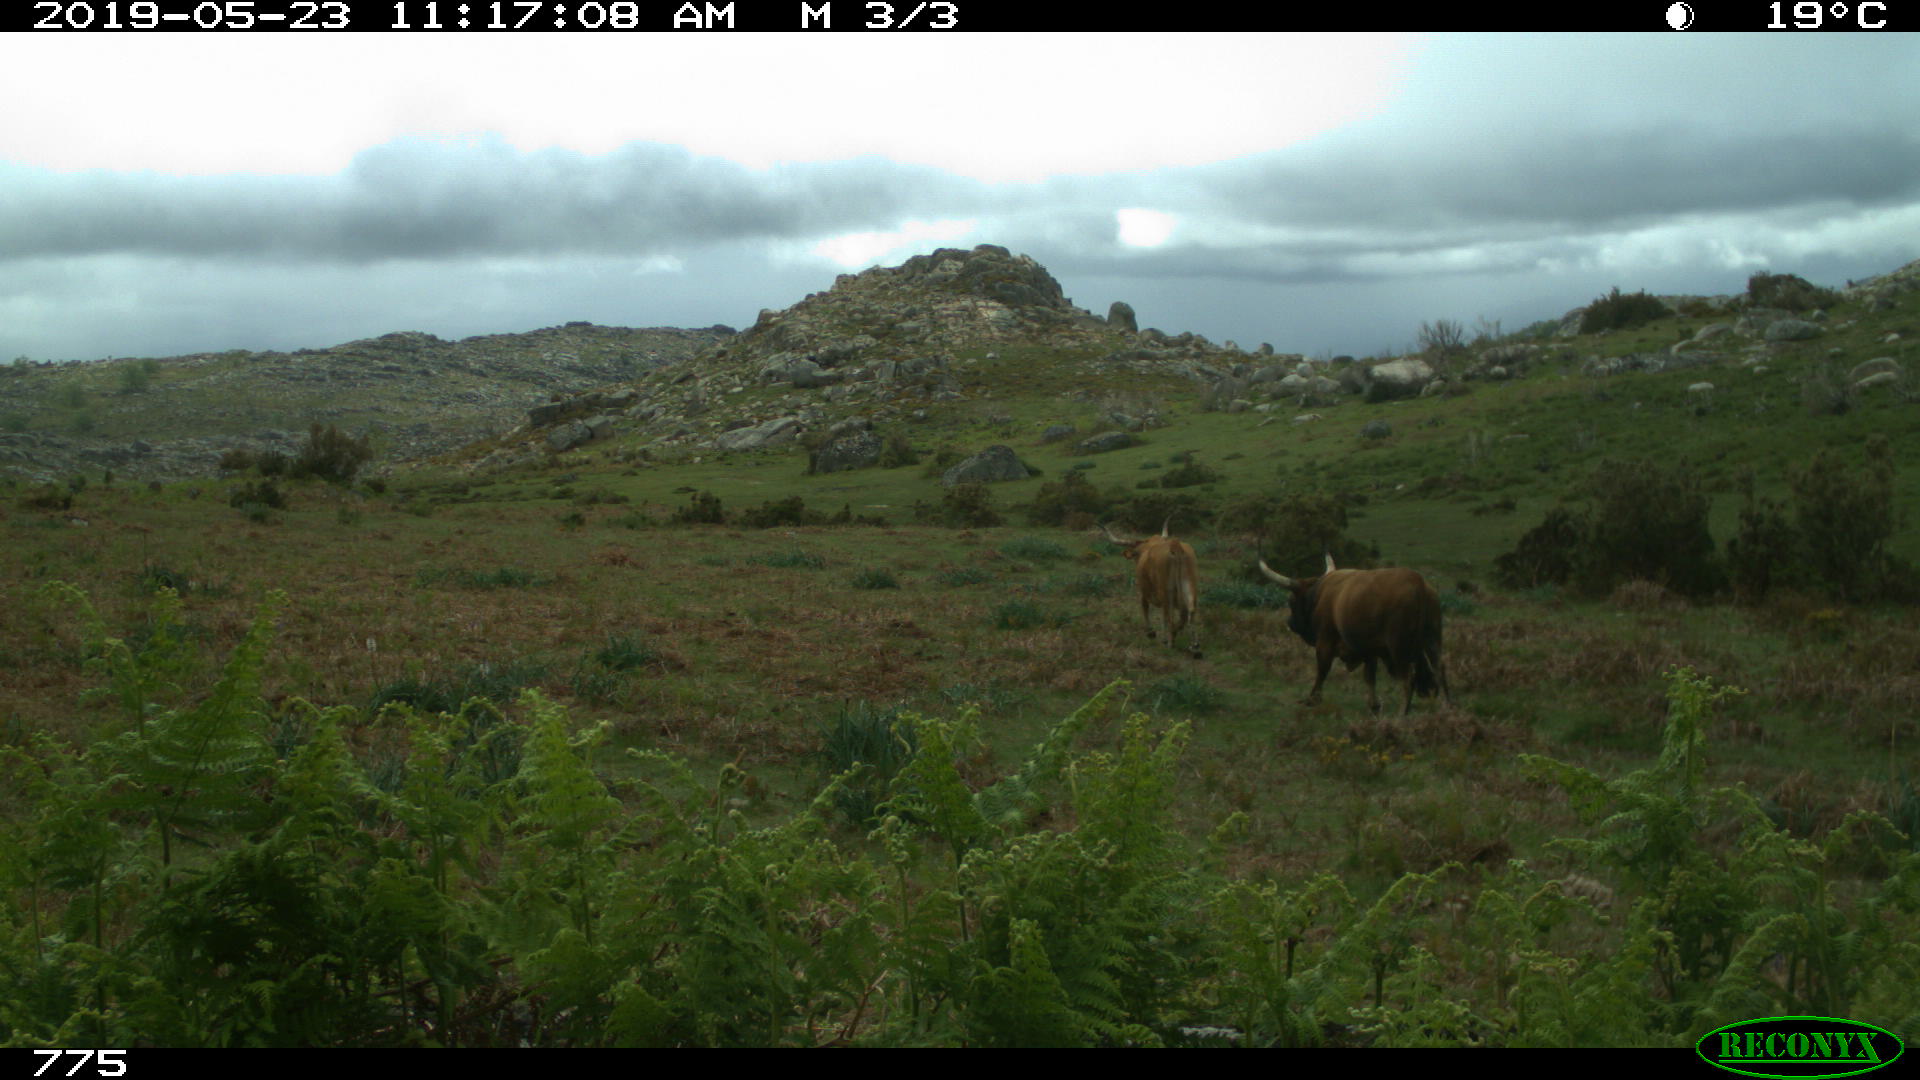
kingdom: Animalia
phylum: Chordata
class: Mammalia
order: Artiodactyla
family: Bovidae
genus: Bos
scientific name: Bos taurus
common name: Domesticated cattle
